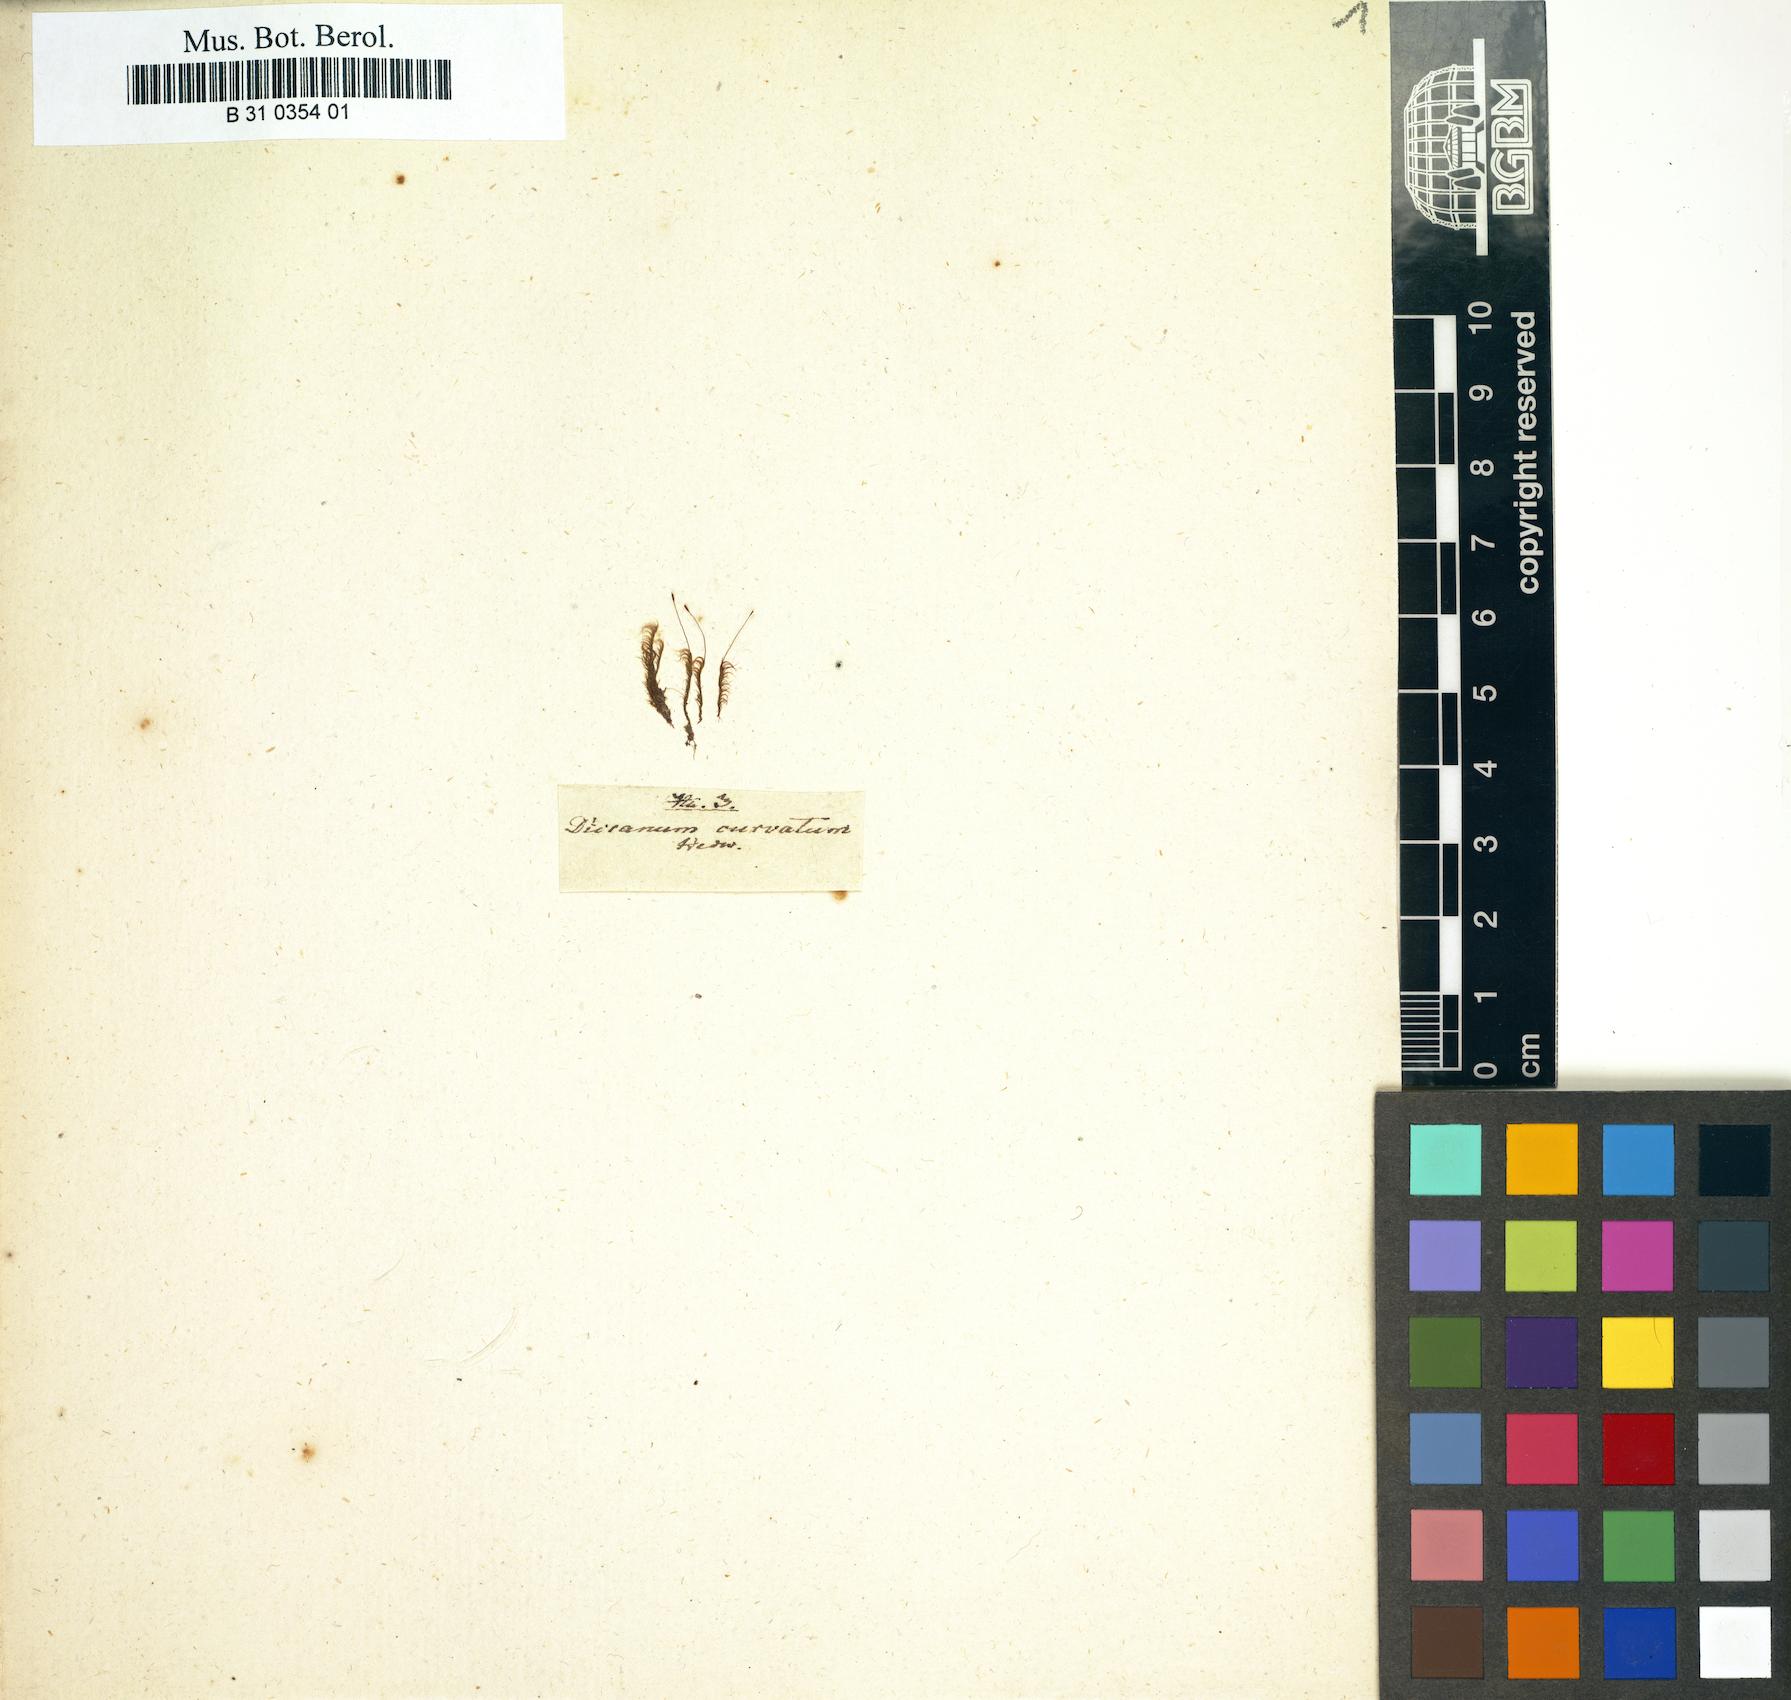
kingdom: Plantae
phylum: Bryophyta
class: Bryopsida
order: Dicranales
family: Dicranellaceae
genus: Dicranella
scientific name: Dicranella subulata
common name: Awl-leaved forklet moss
